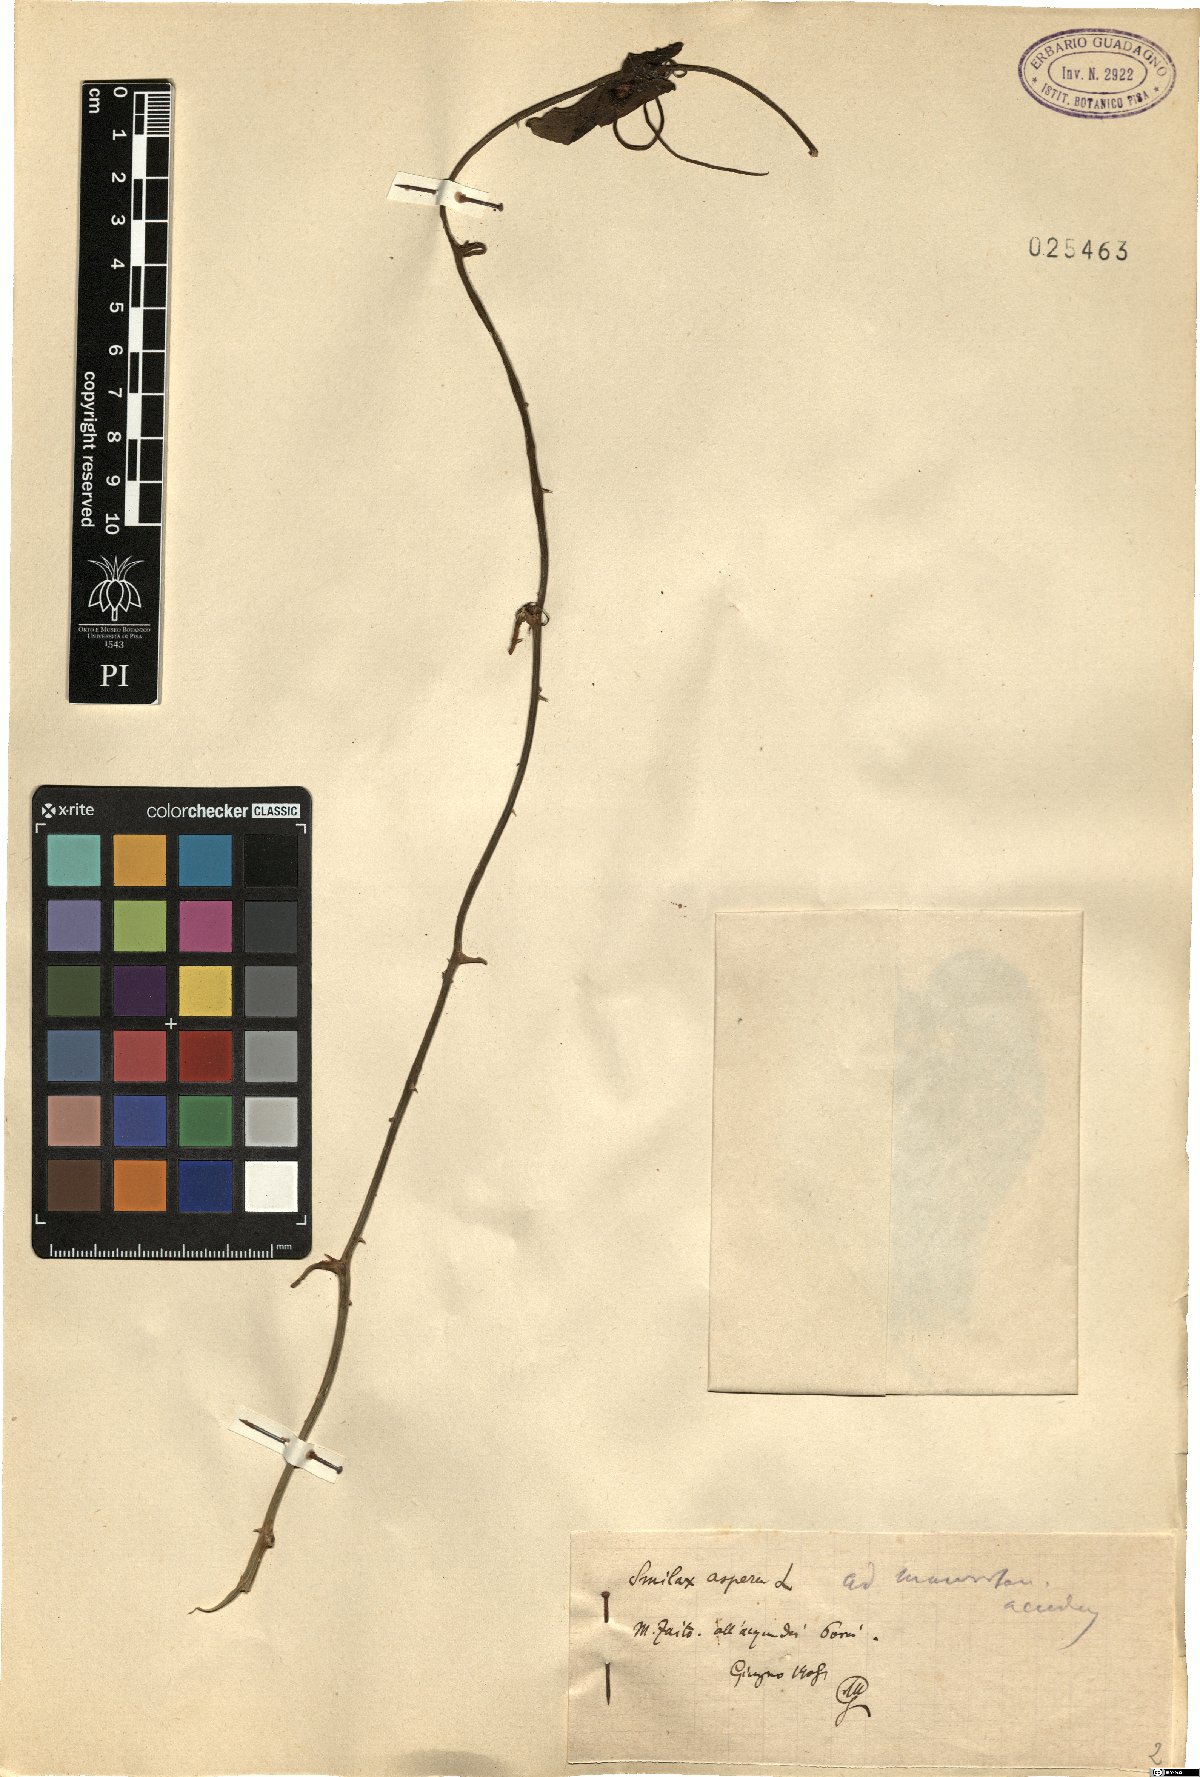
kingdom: Plantae
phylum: Tracheophyta
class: Liliopsida
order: Liliales
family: Smilacaceae
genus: Smilax
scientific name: Smilax aspera
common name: Common smilax
